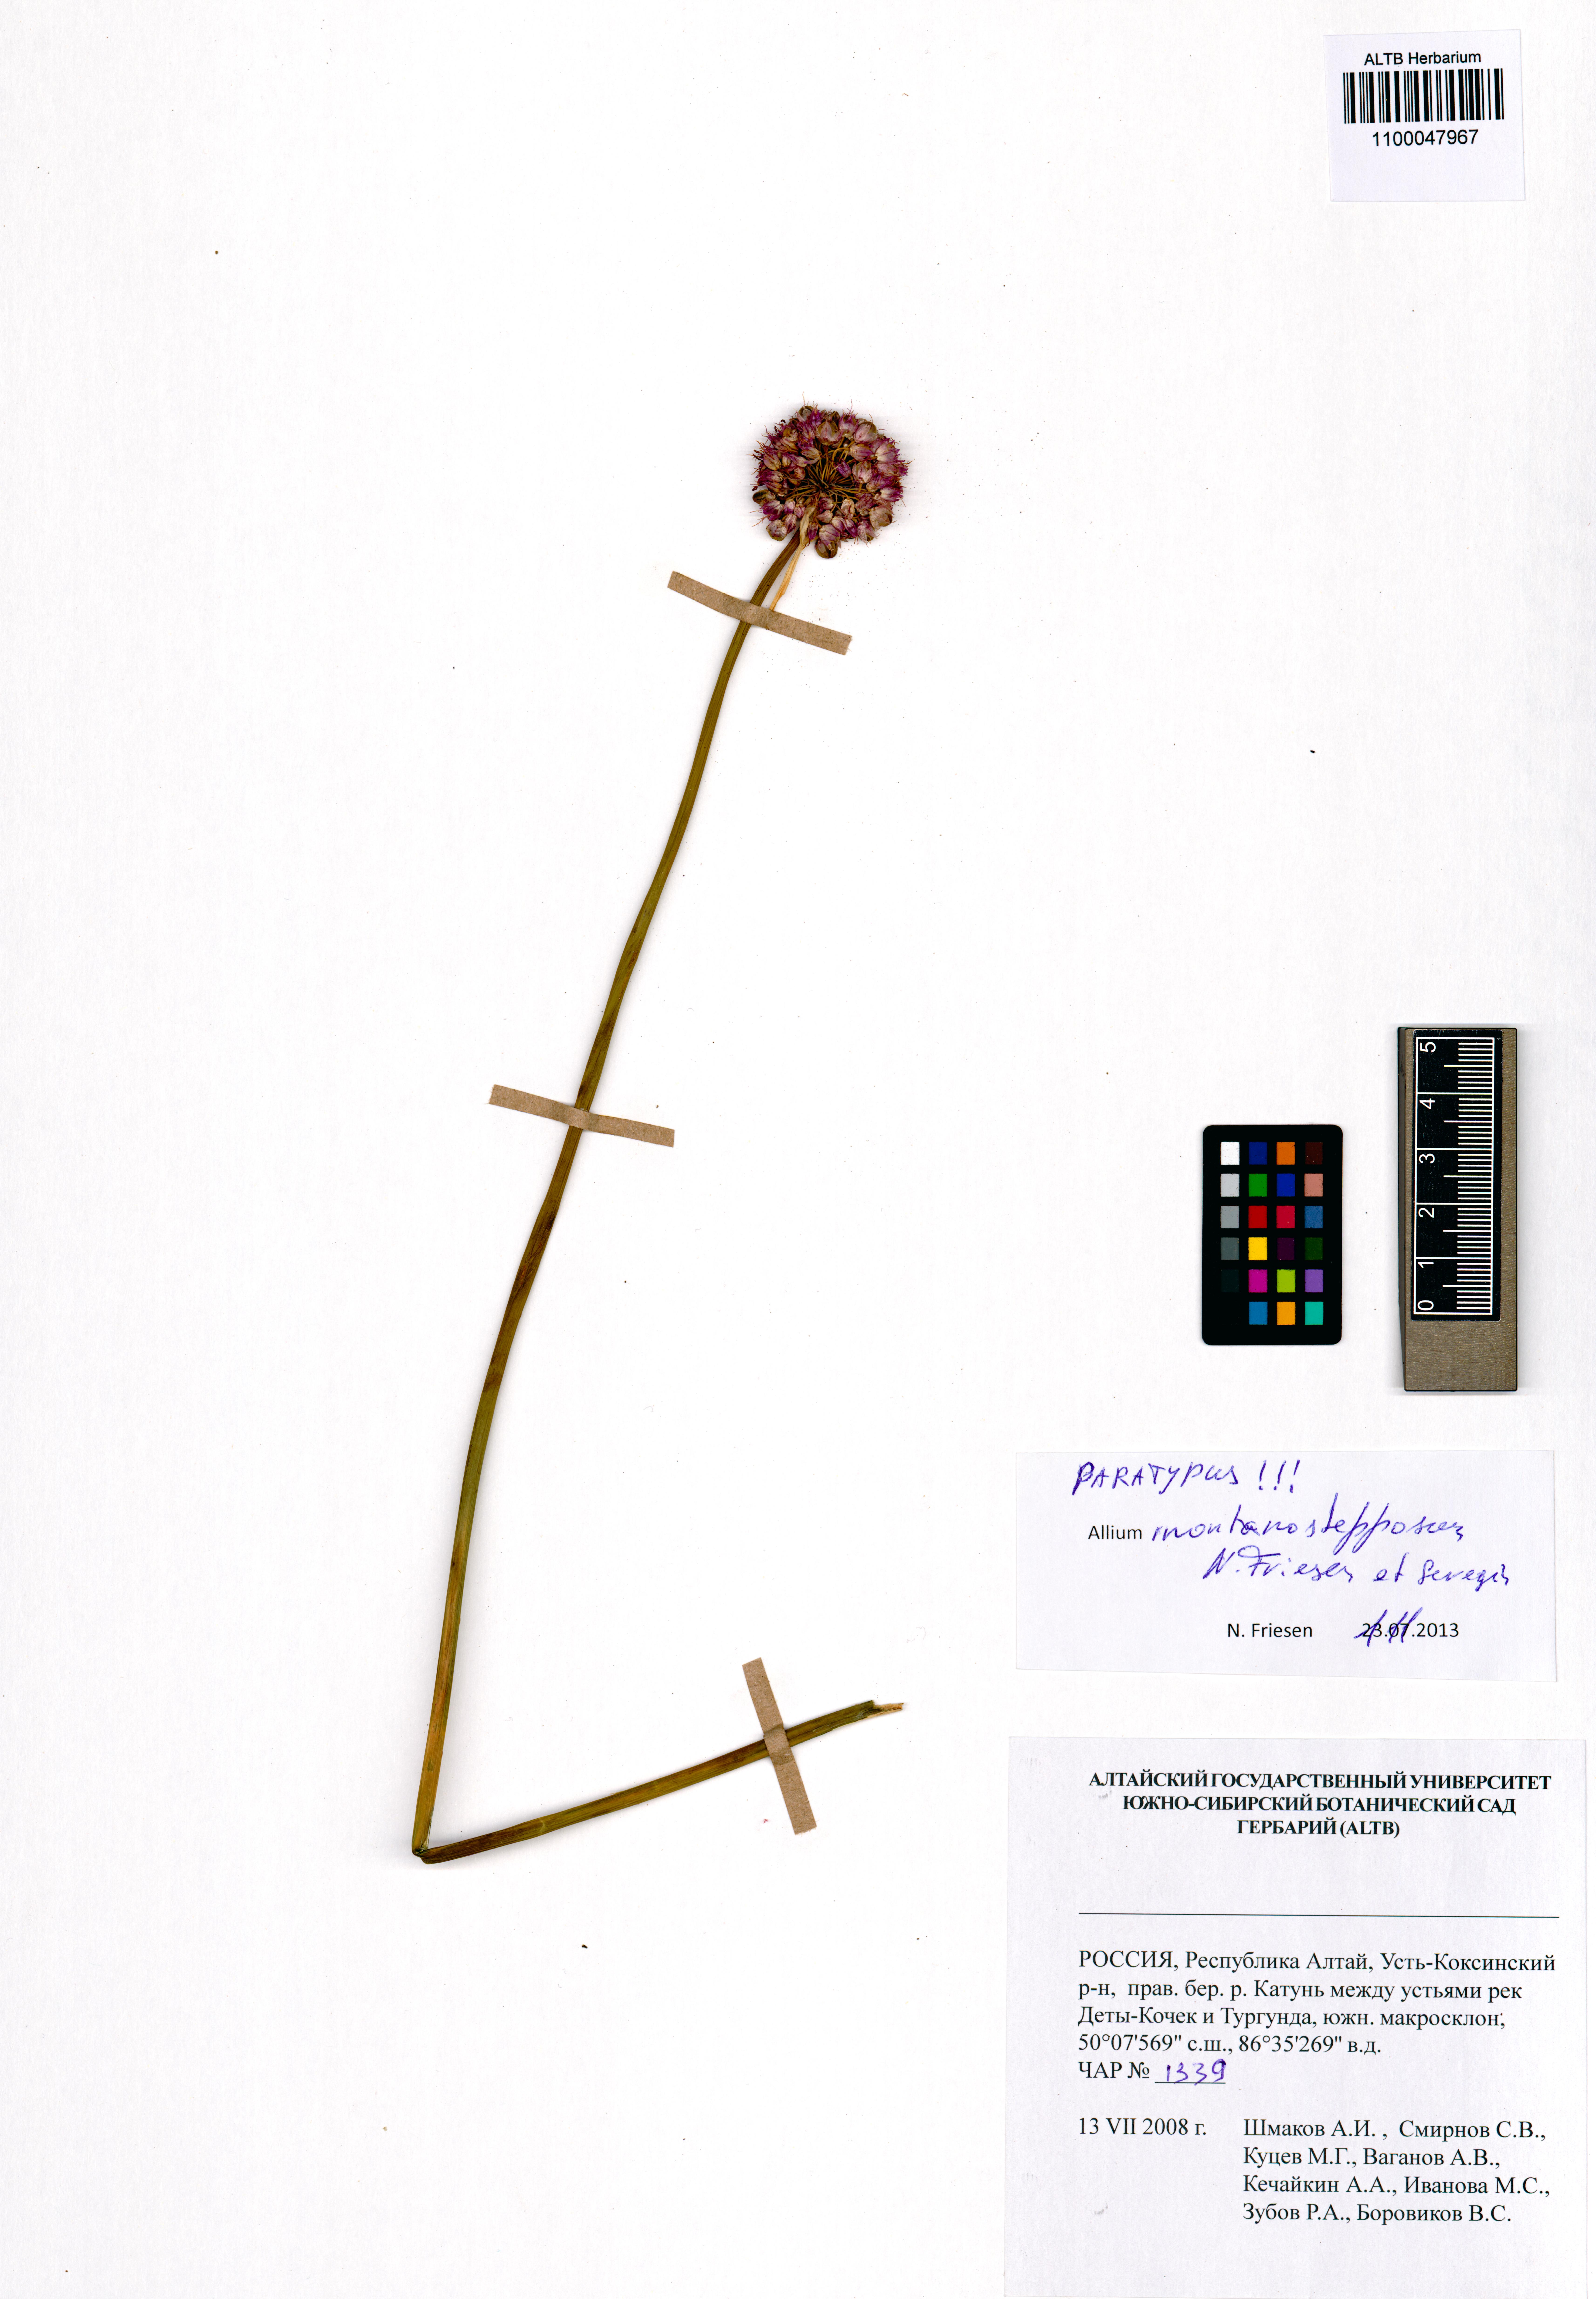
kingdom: Plantae
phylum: Tracheophyta
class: Liliopsida
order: Asparagales
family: Amaryllidaceae
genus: Allium
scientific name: Allium montanostepposum
